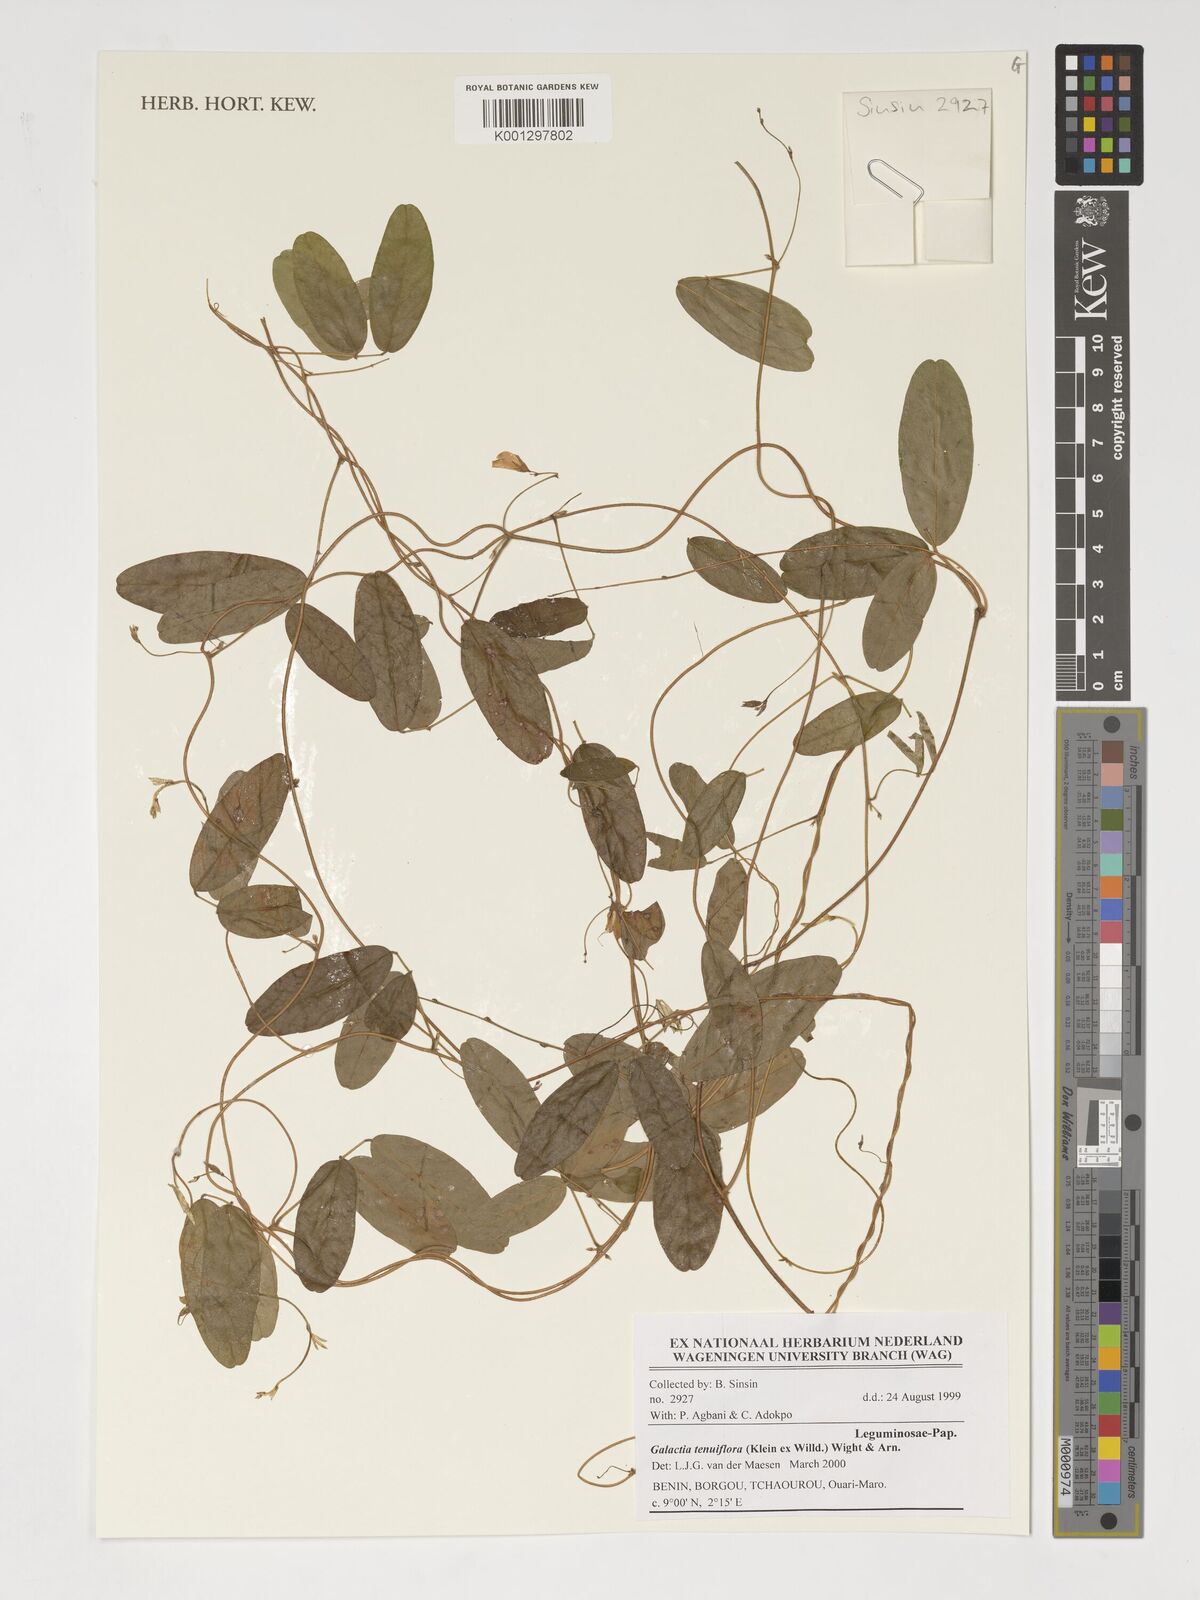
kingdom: Plantae
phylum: Tracheophyta
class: Magnoliopsida
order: Fabales
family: Fabaceae
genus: Galactia
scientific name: Galactia striata
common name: Florida hammock milkpea
